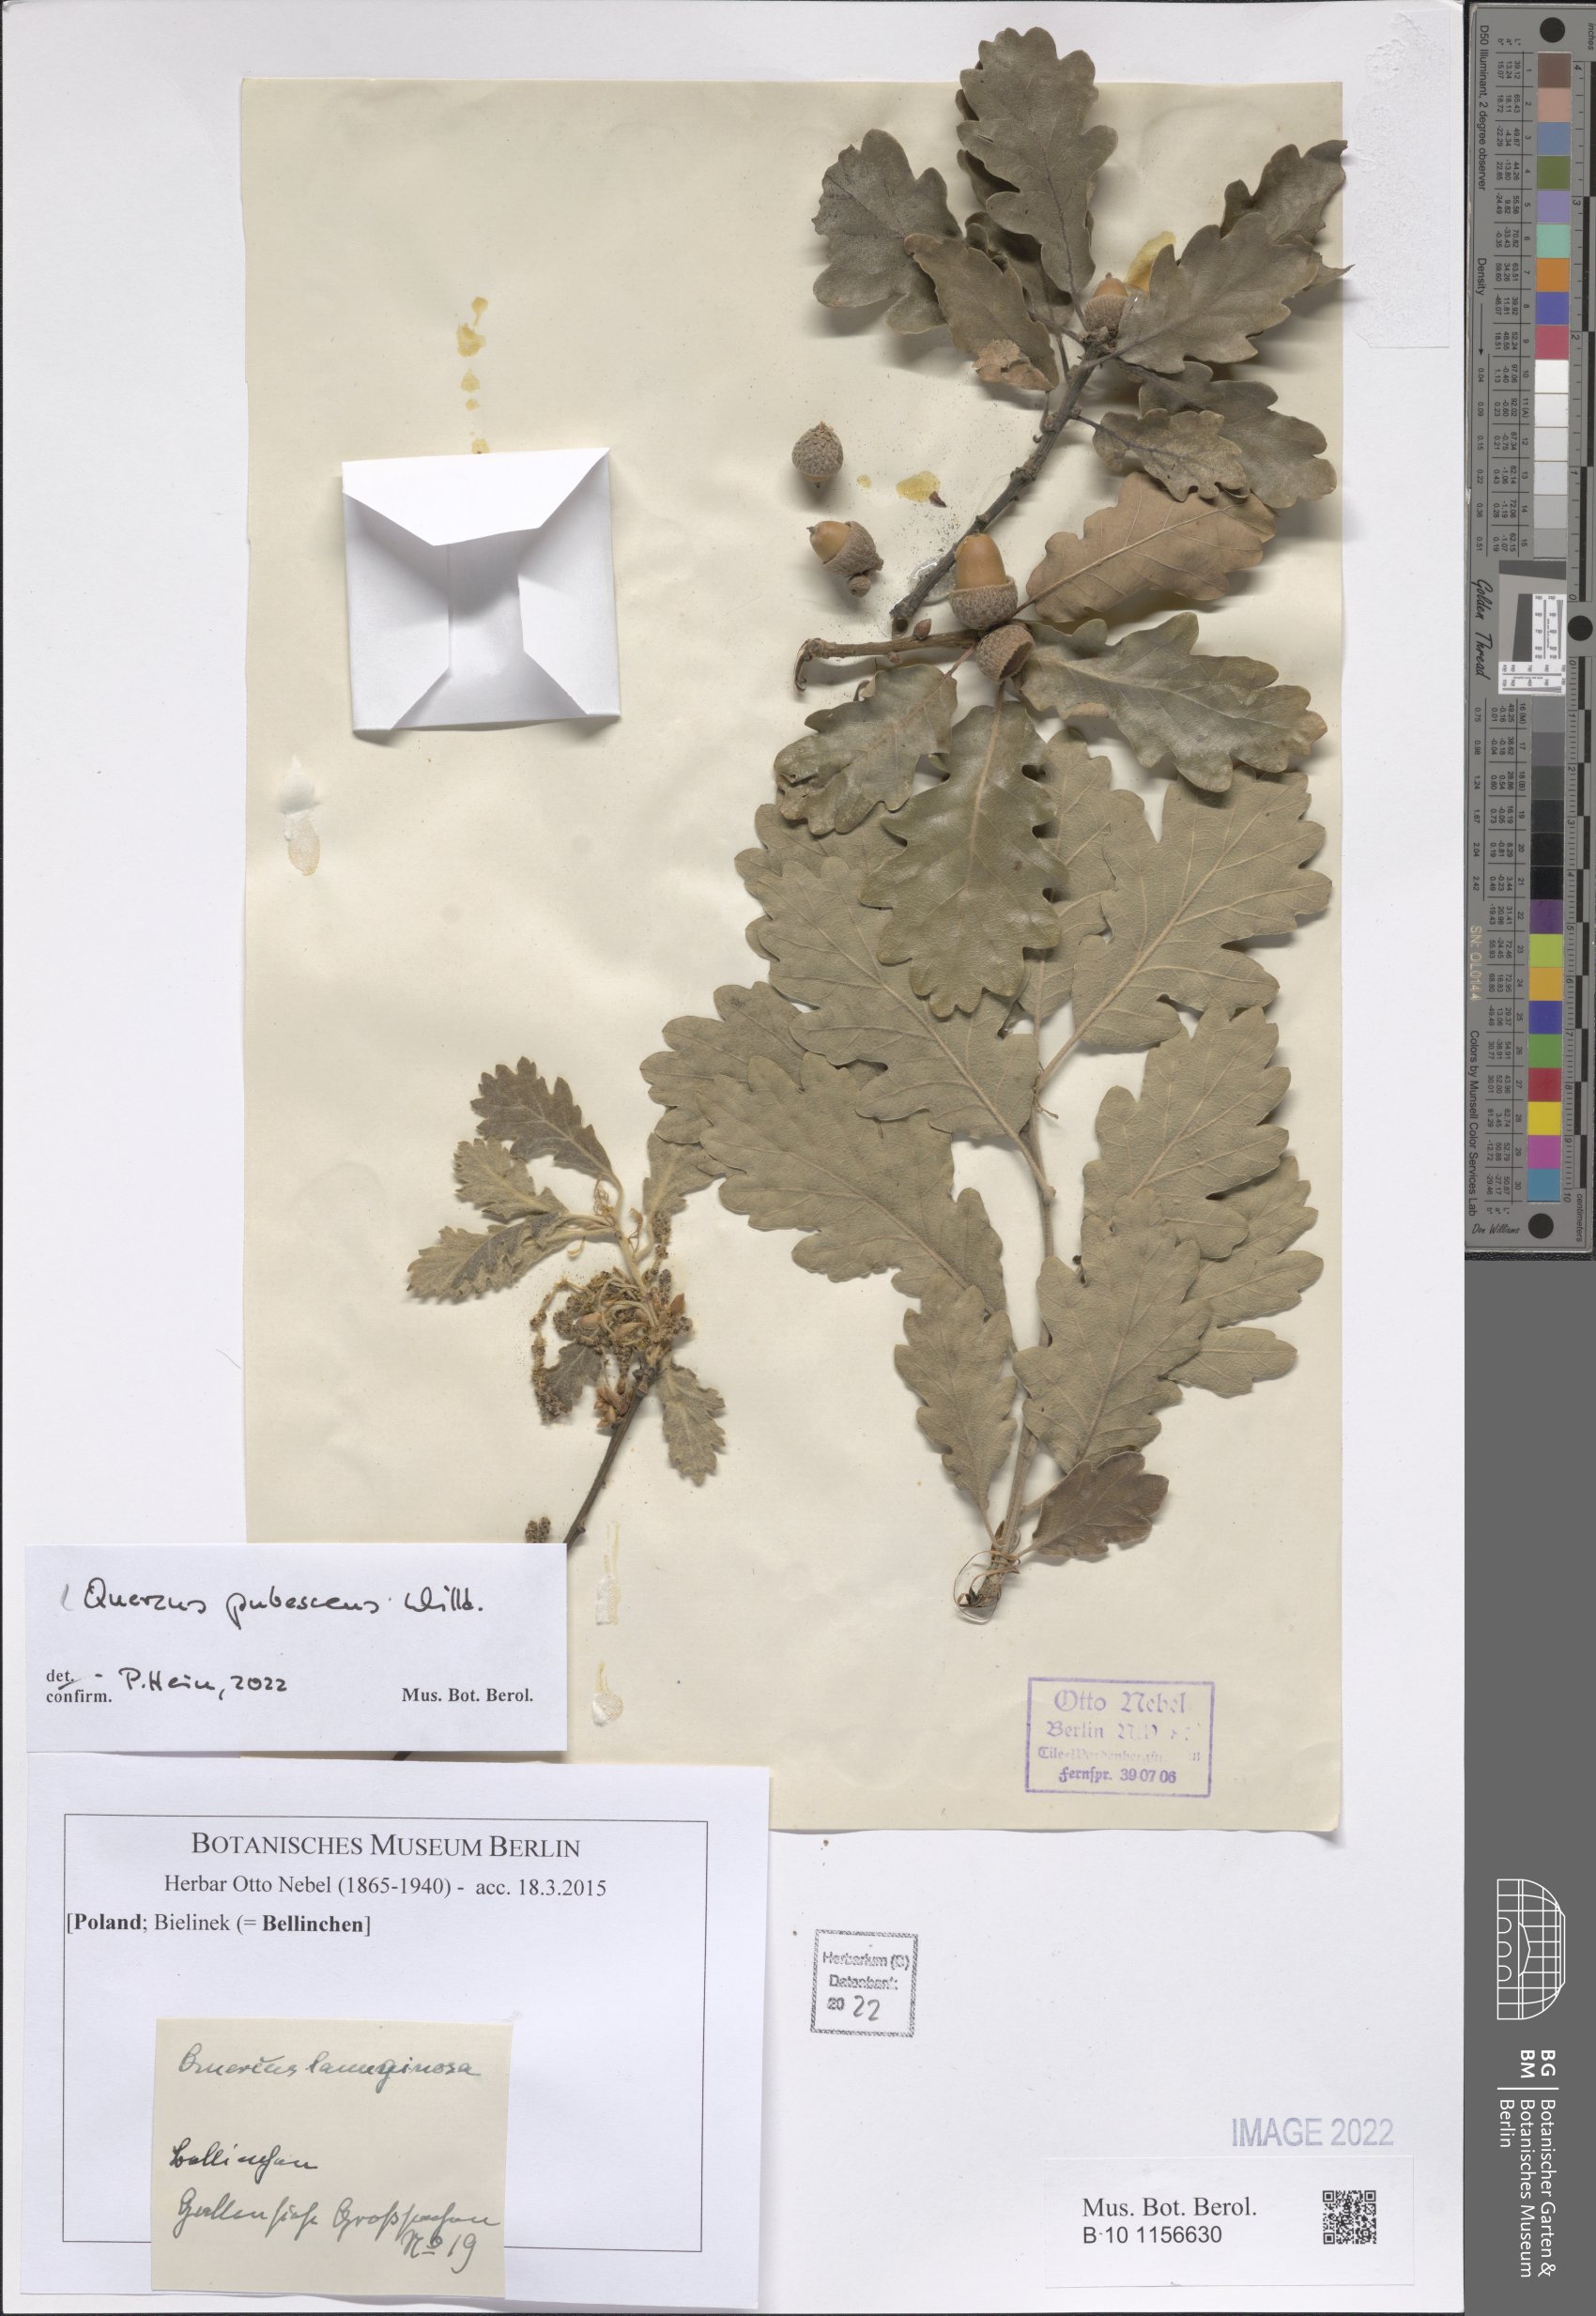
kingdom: Plantae
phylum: Tracheophyta
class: Magnoliopsida
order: Fagales
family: Fagaceae
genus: Quercus
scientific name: Quercus pubescens
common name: Downy oak
